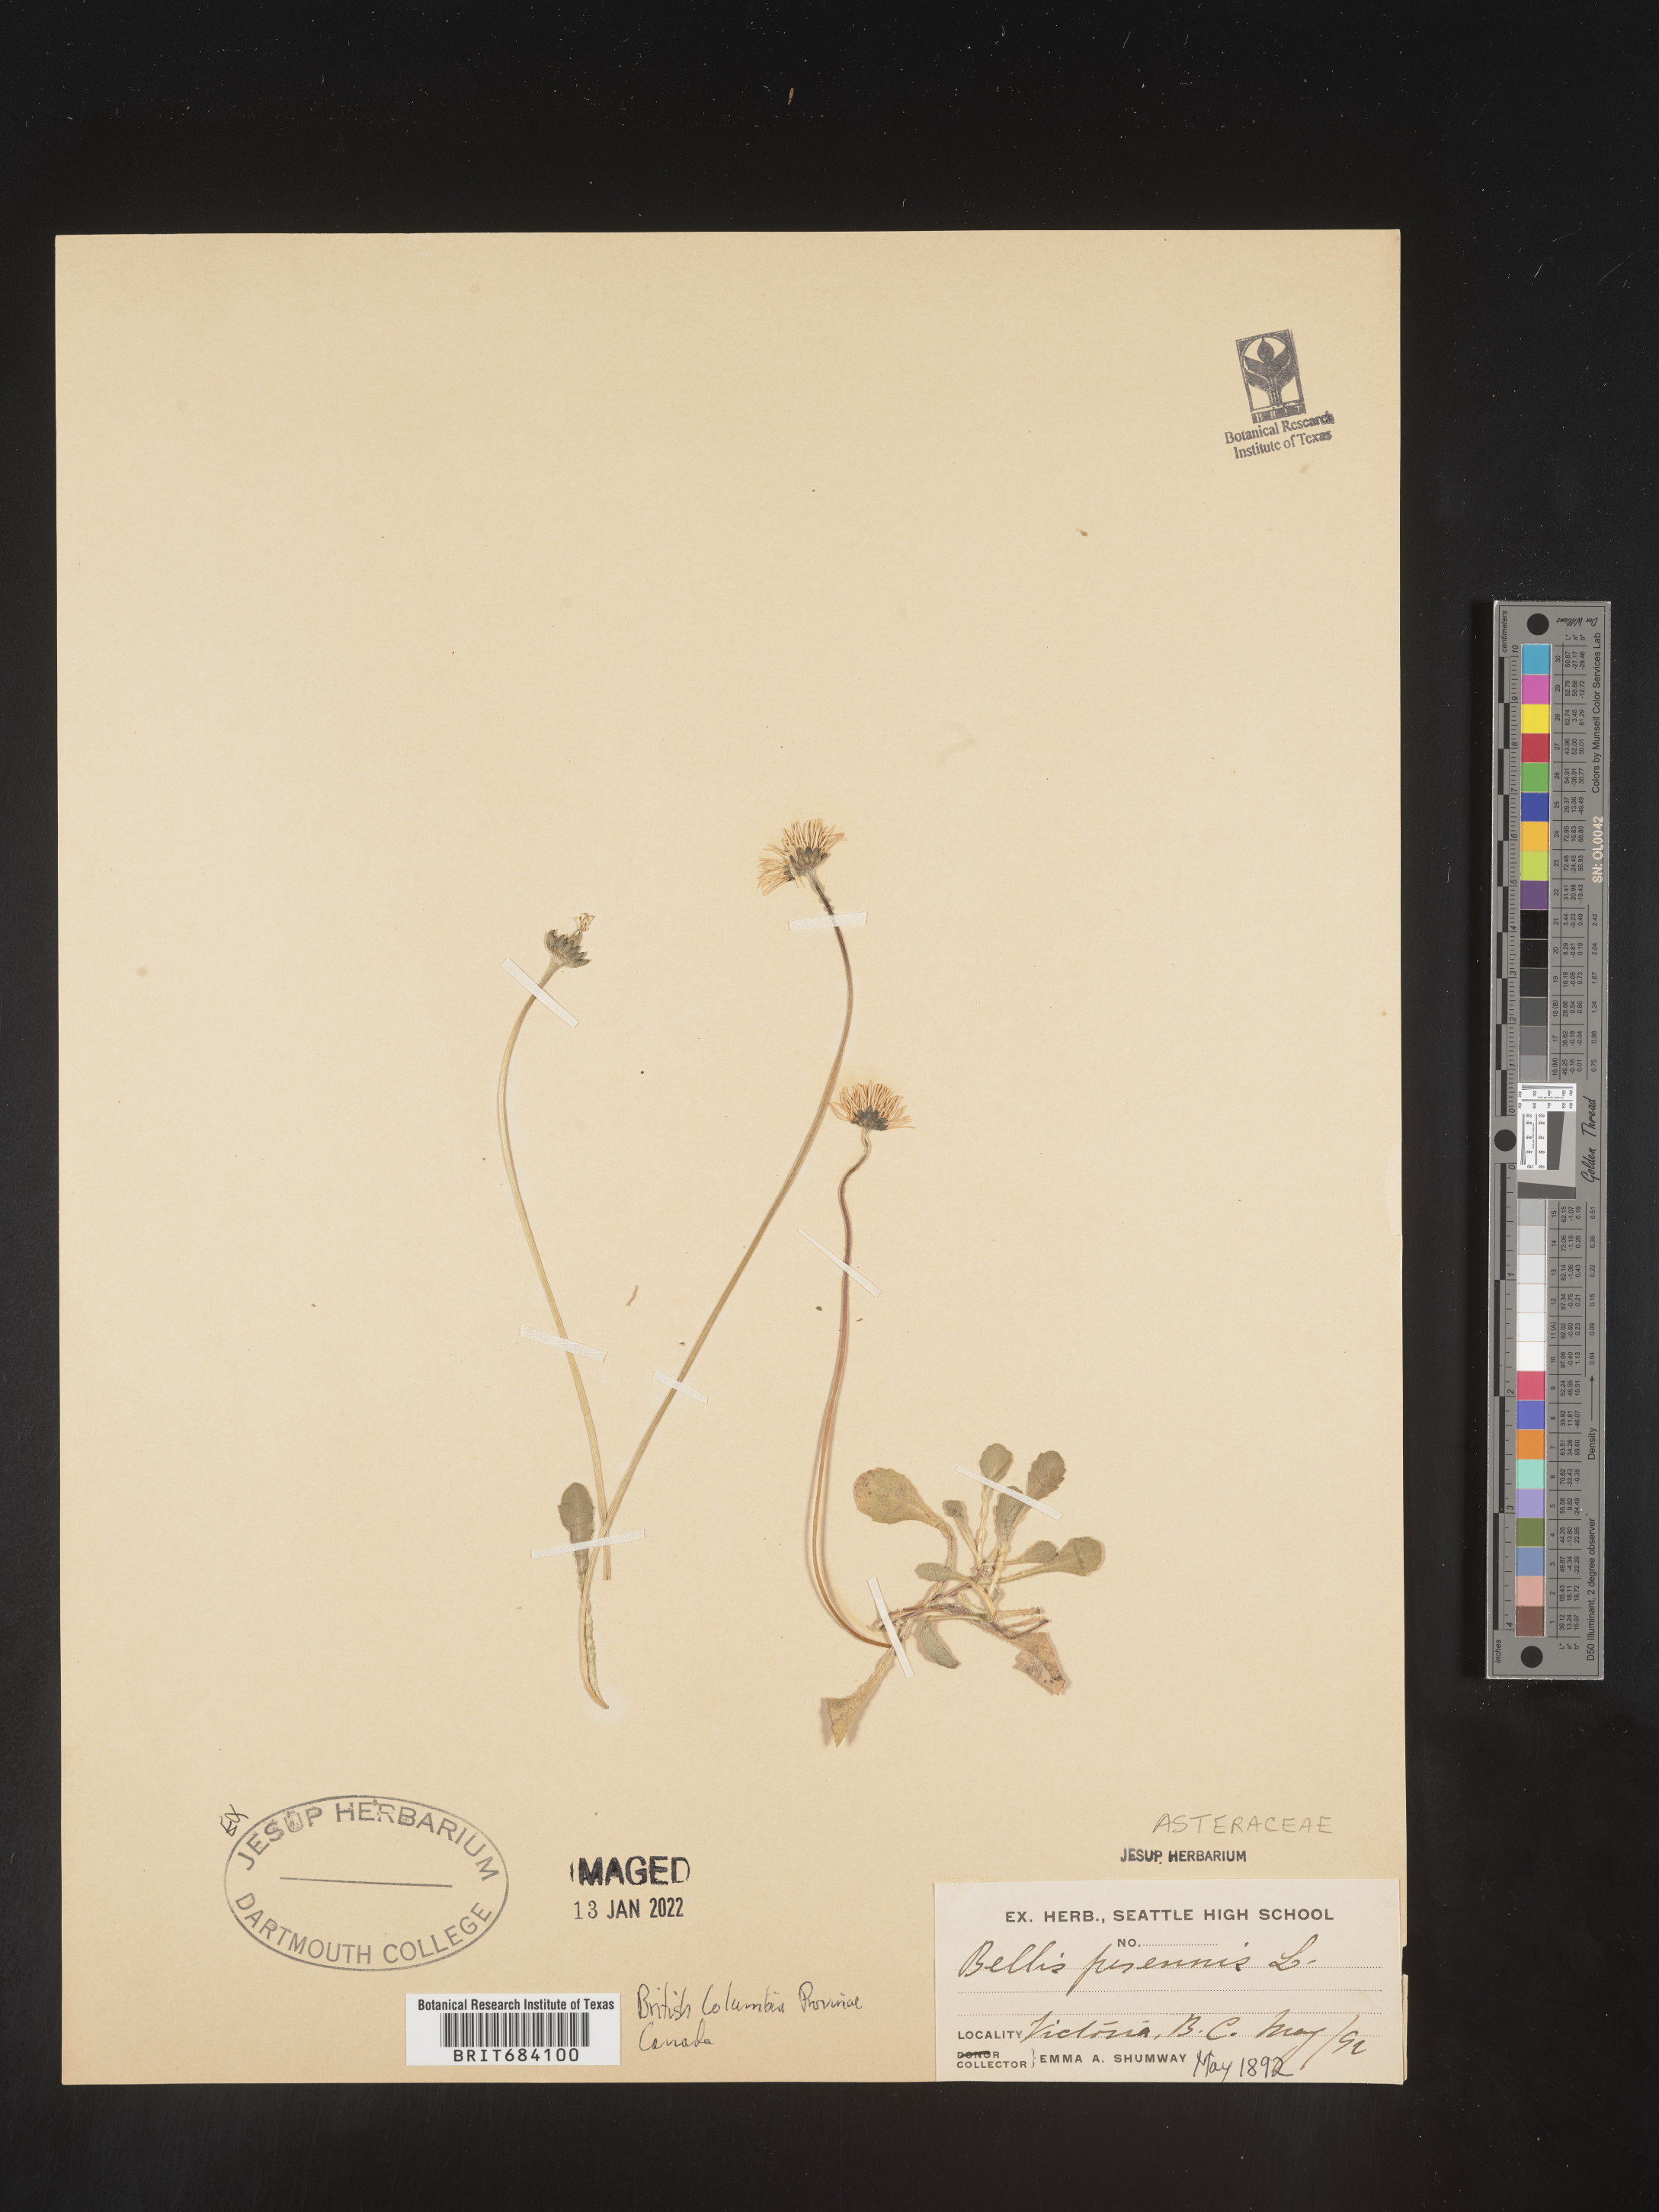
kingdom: Plantae
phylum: Tracheophyta
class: Magnoliopsida
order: Asterales
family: Asteraceae
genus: Bellis
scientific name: Bellis
